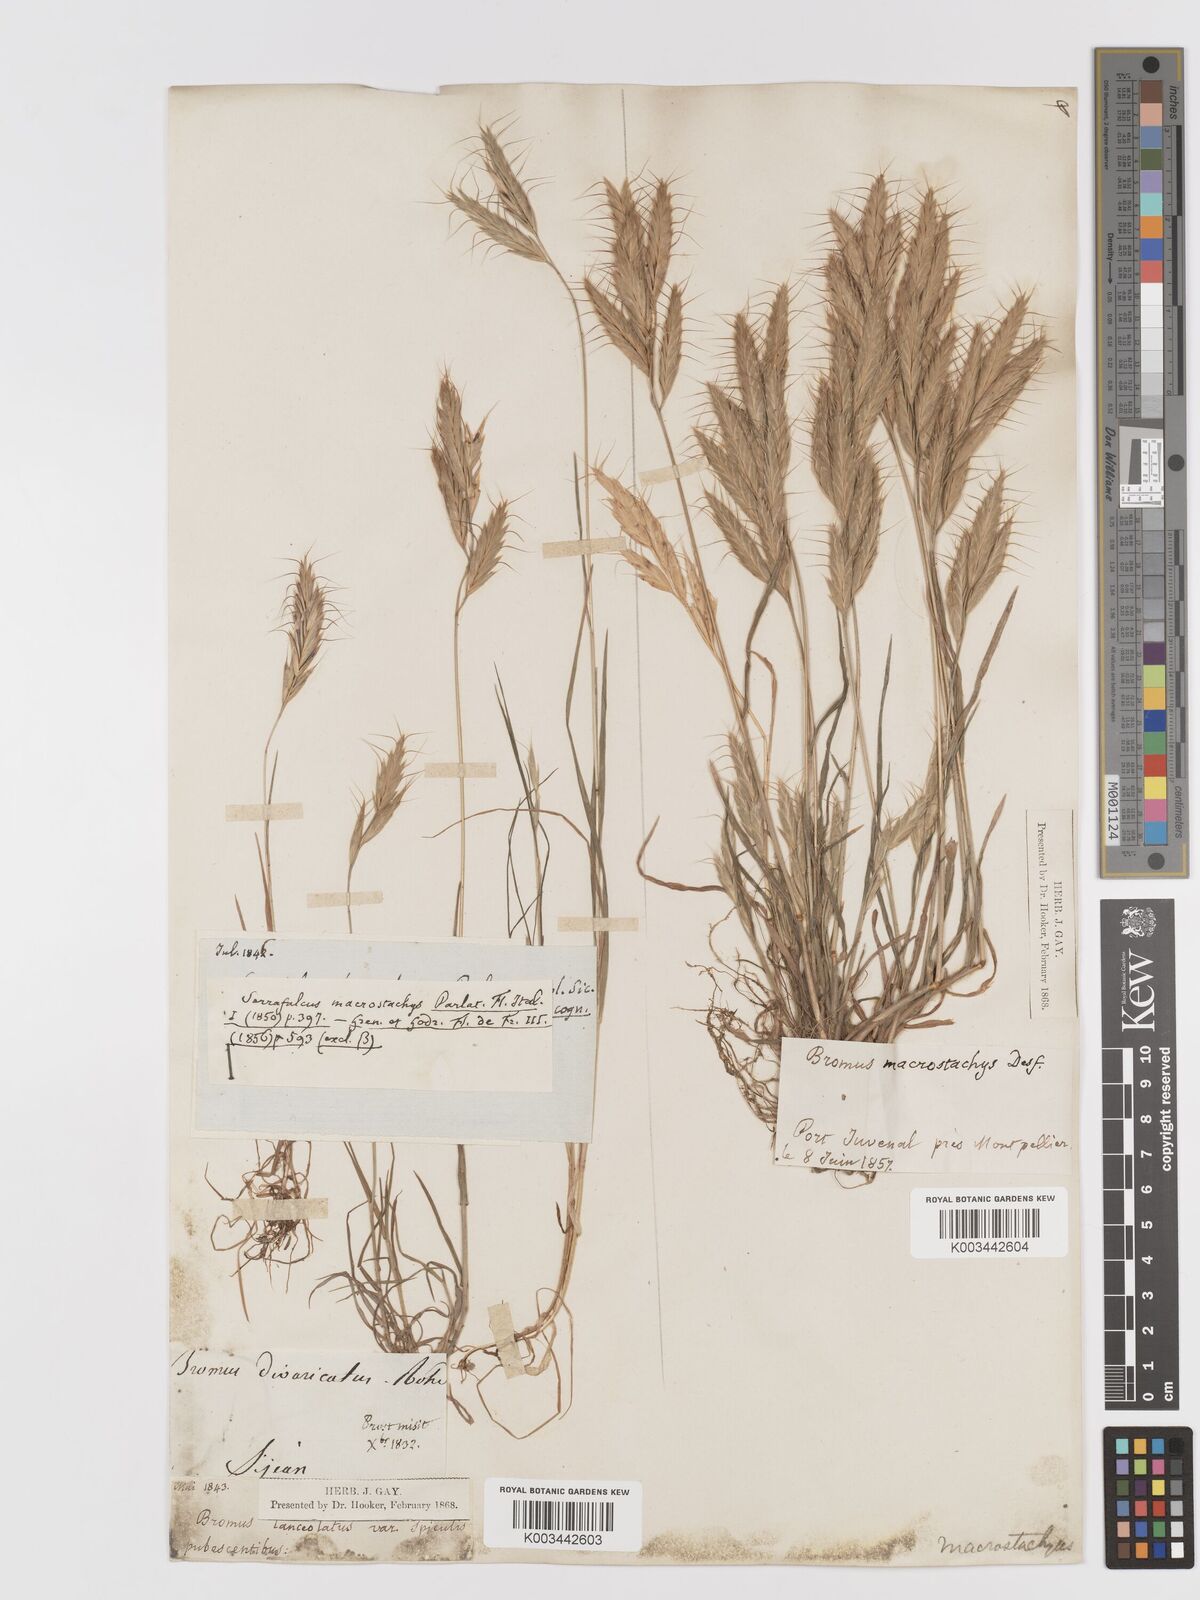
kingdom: Plantae
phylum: Tracheophyta
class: Liliopsida
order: Poales
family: Poaceae
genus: Bromus
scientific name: Bromus lanceolatus
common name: Mediterranean brome
